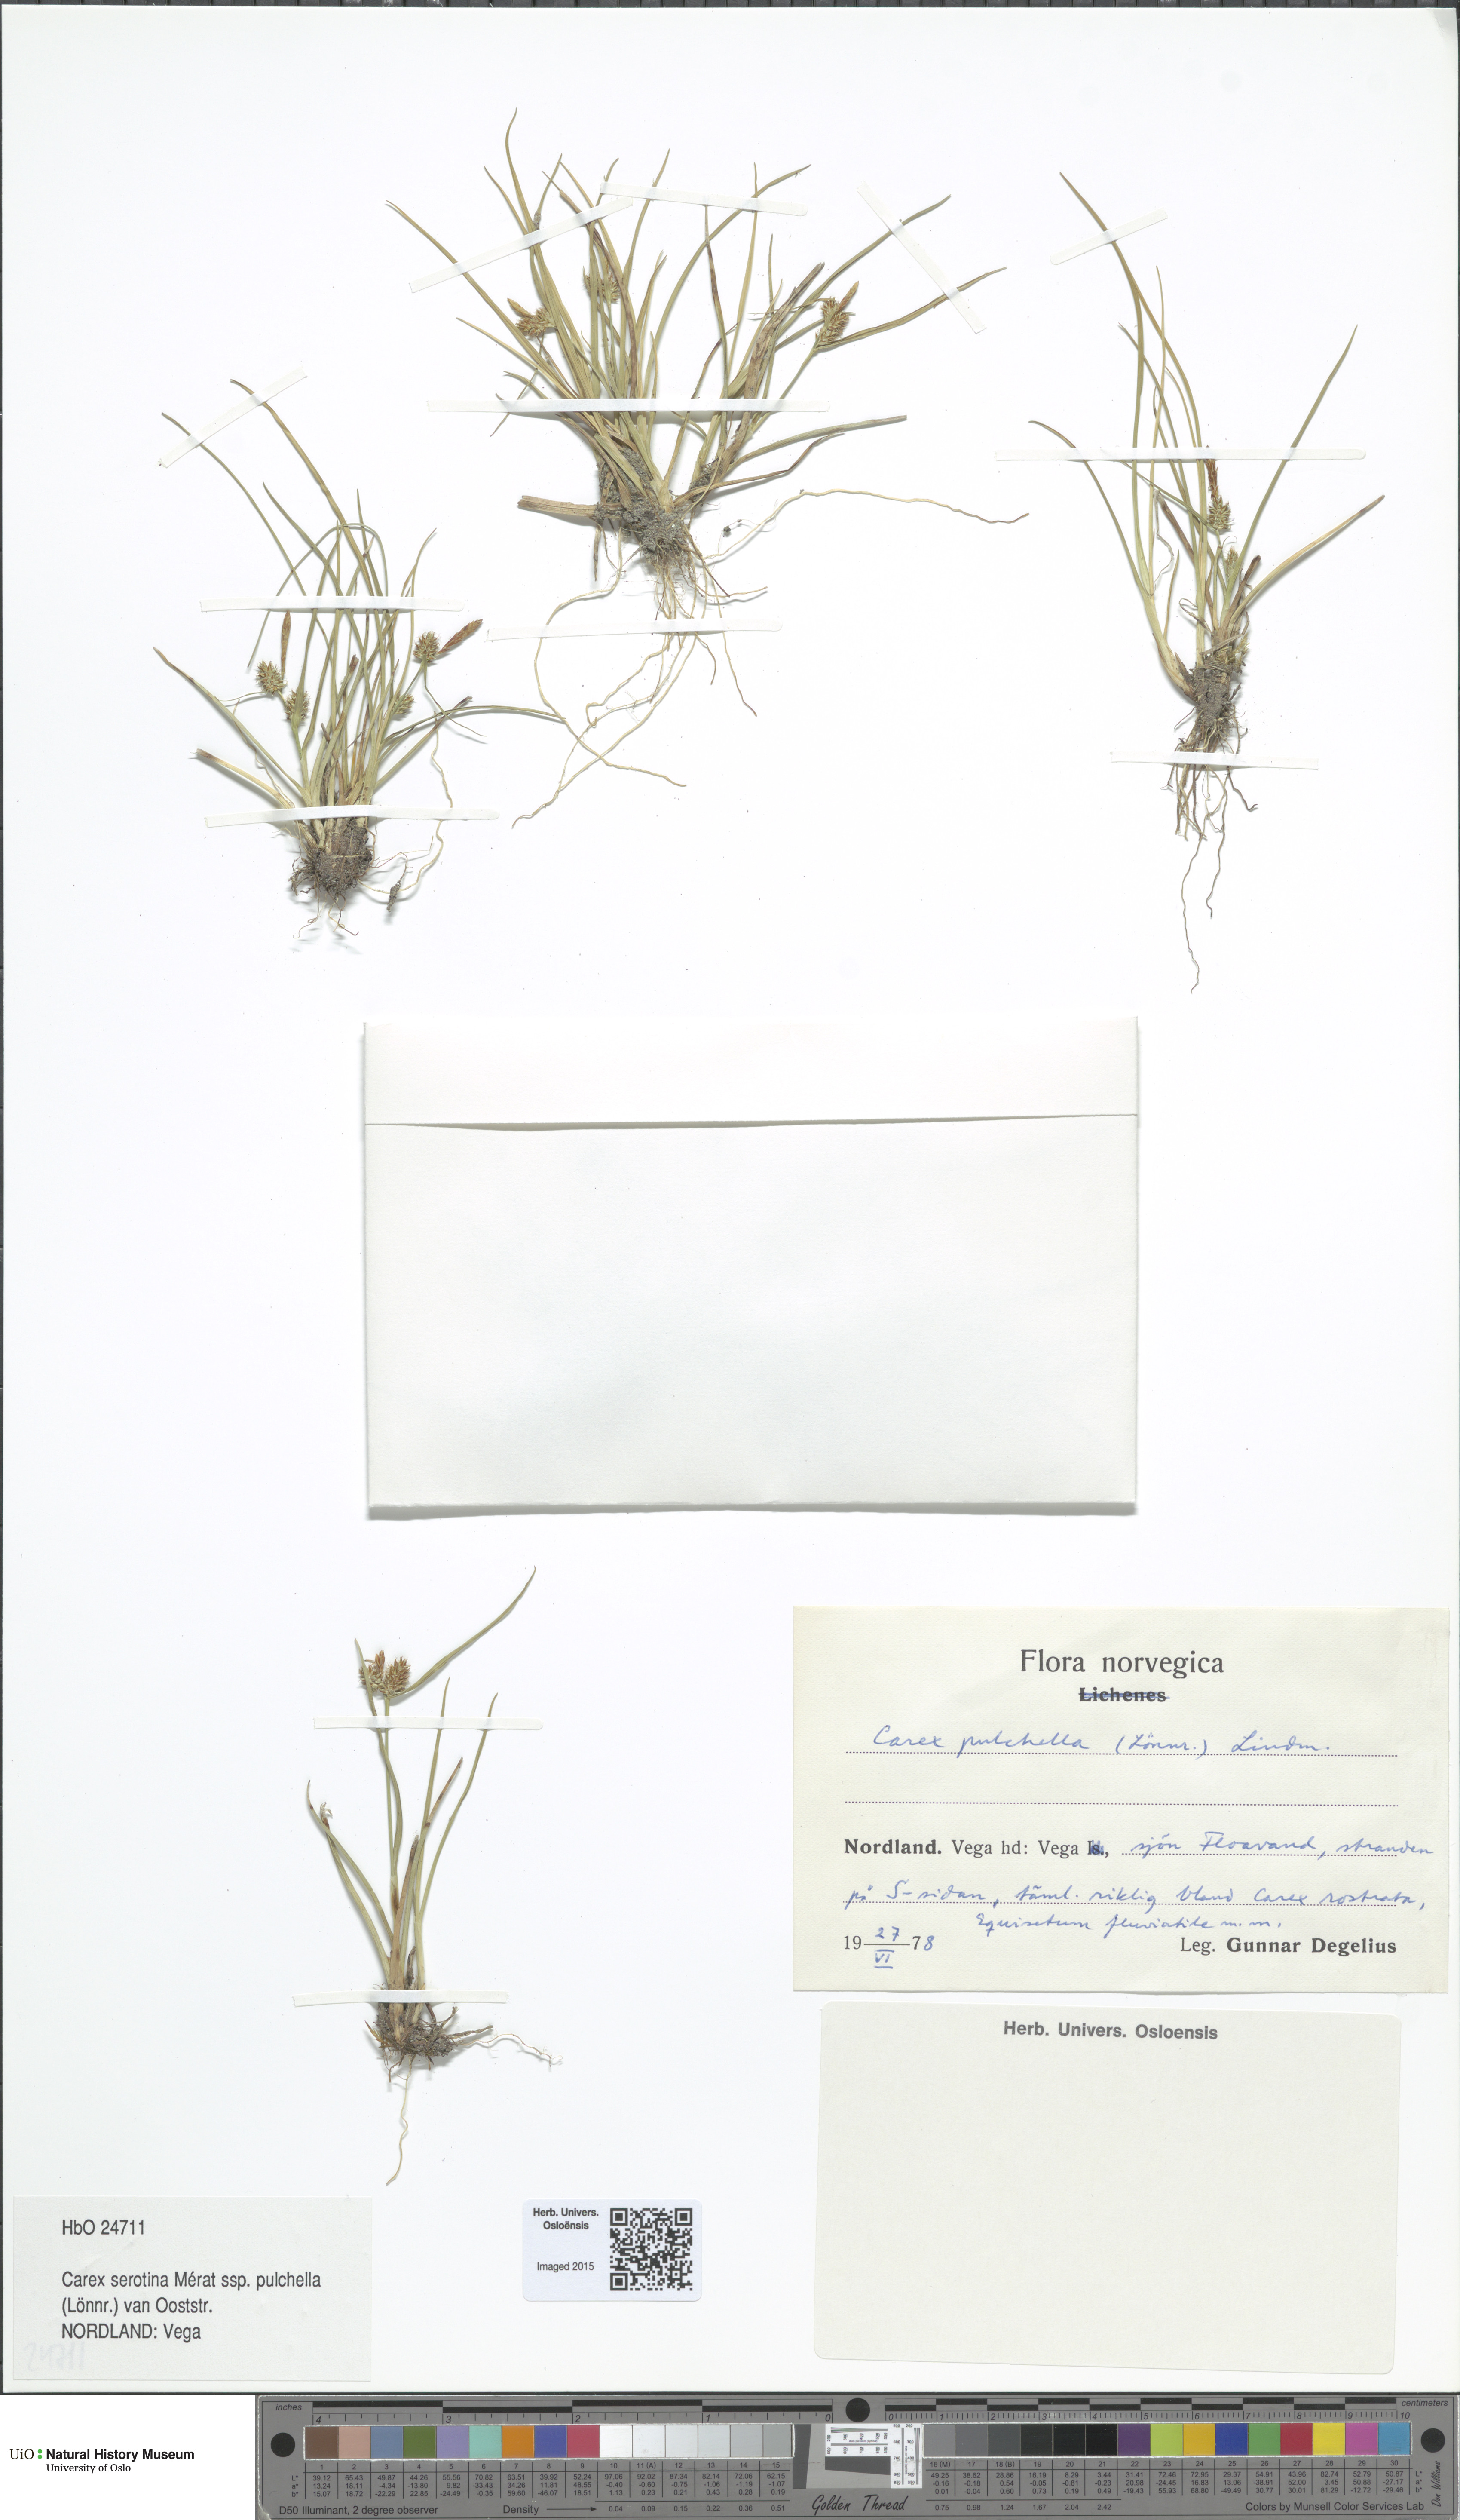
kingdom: Plantae
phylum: Tracheophyta
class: Liliopsida
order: Poales
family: Cyperaceae
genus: Carex
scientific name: Carex oederi
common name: Common & small-fruited yellow-sedge
